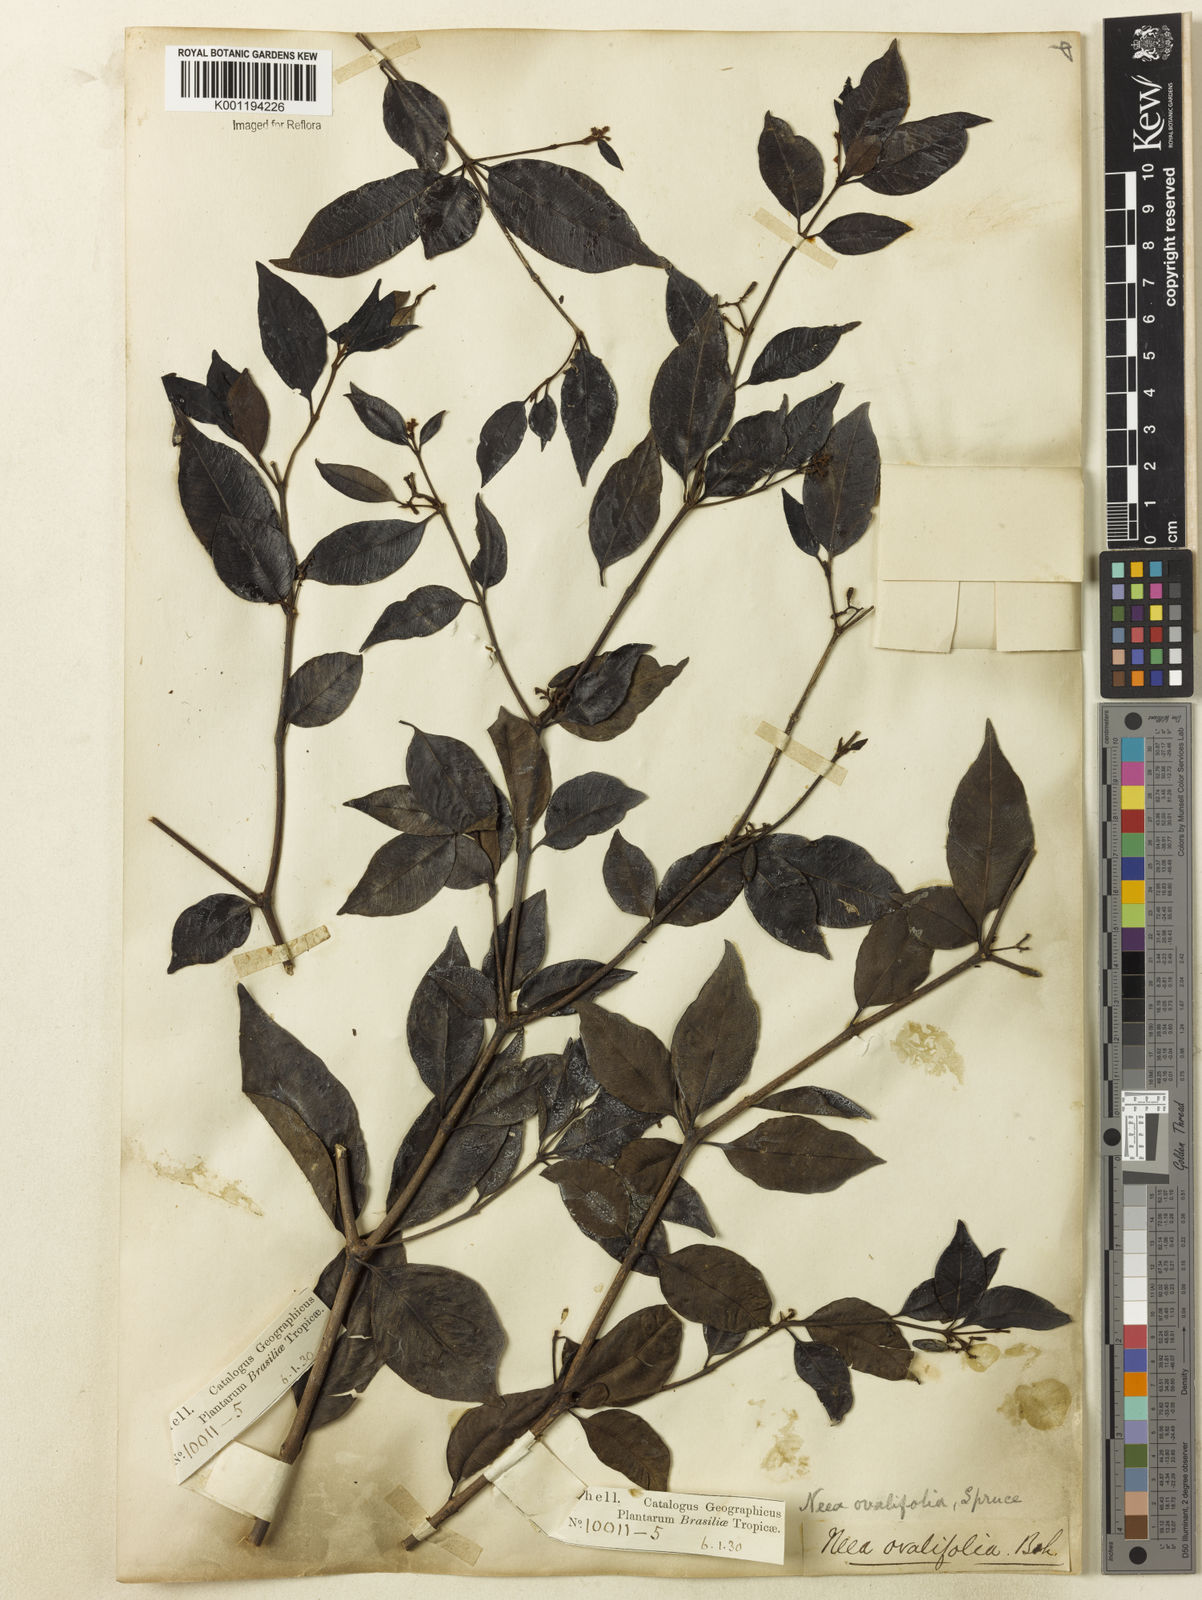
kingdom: Plantae
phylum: Tracheophyta
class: Magnoliopsida
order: Caryophyllales
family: Nyctaginaceae
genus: Neea
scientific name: Neea ovalifolia
